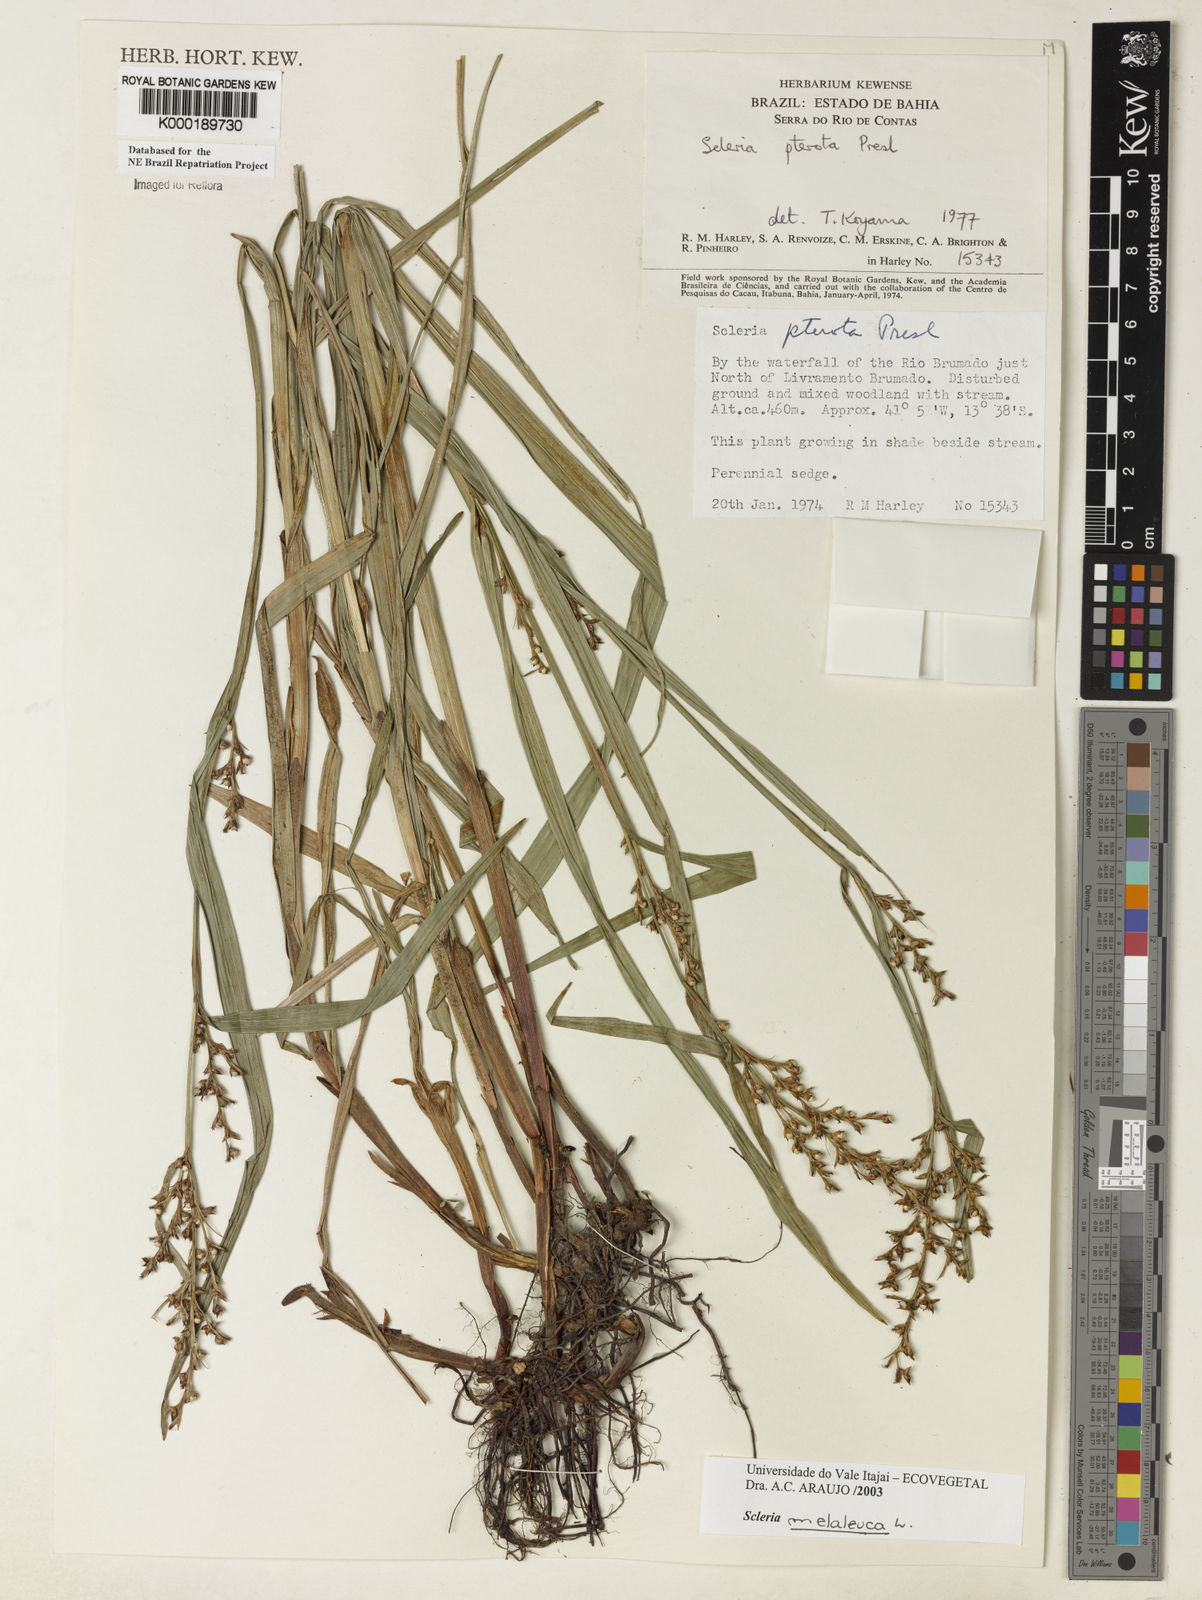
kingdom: Plantae
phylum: Tracheophyta
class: Liliopsida
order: Poales
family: Cyperaceae
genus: Scleria
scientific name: Scleria gaertneri
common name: Cortadera blanca
